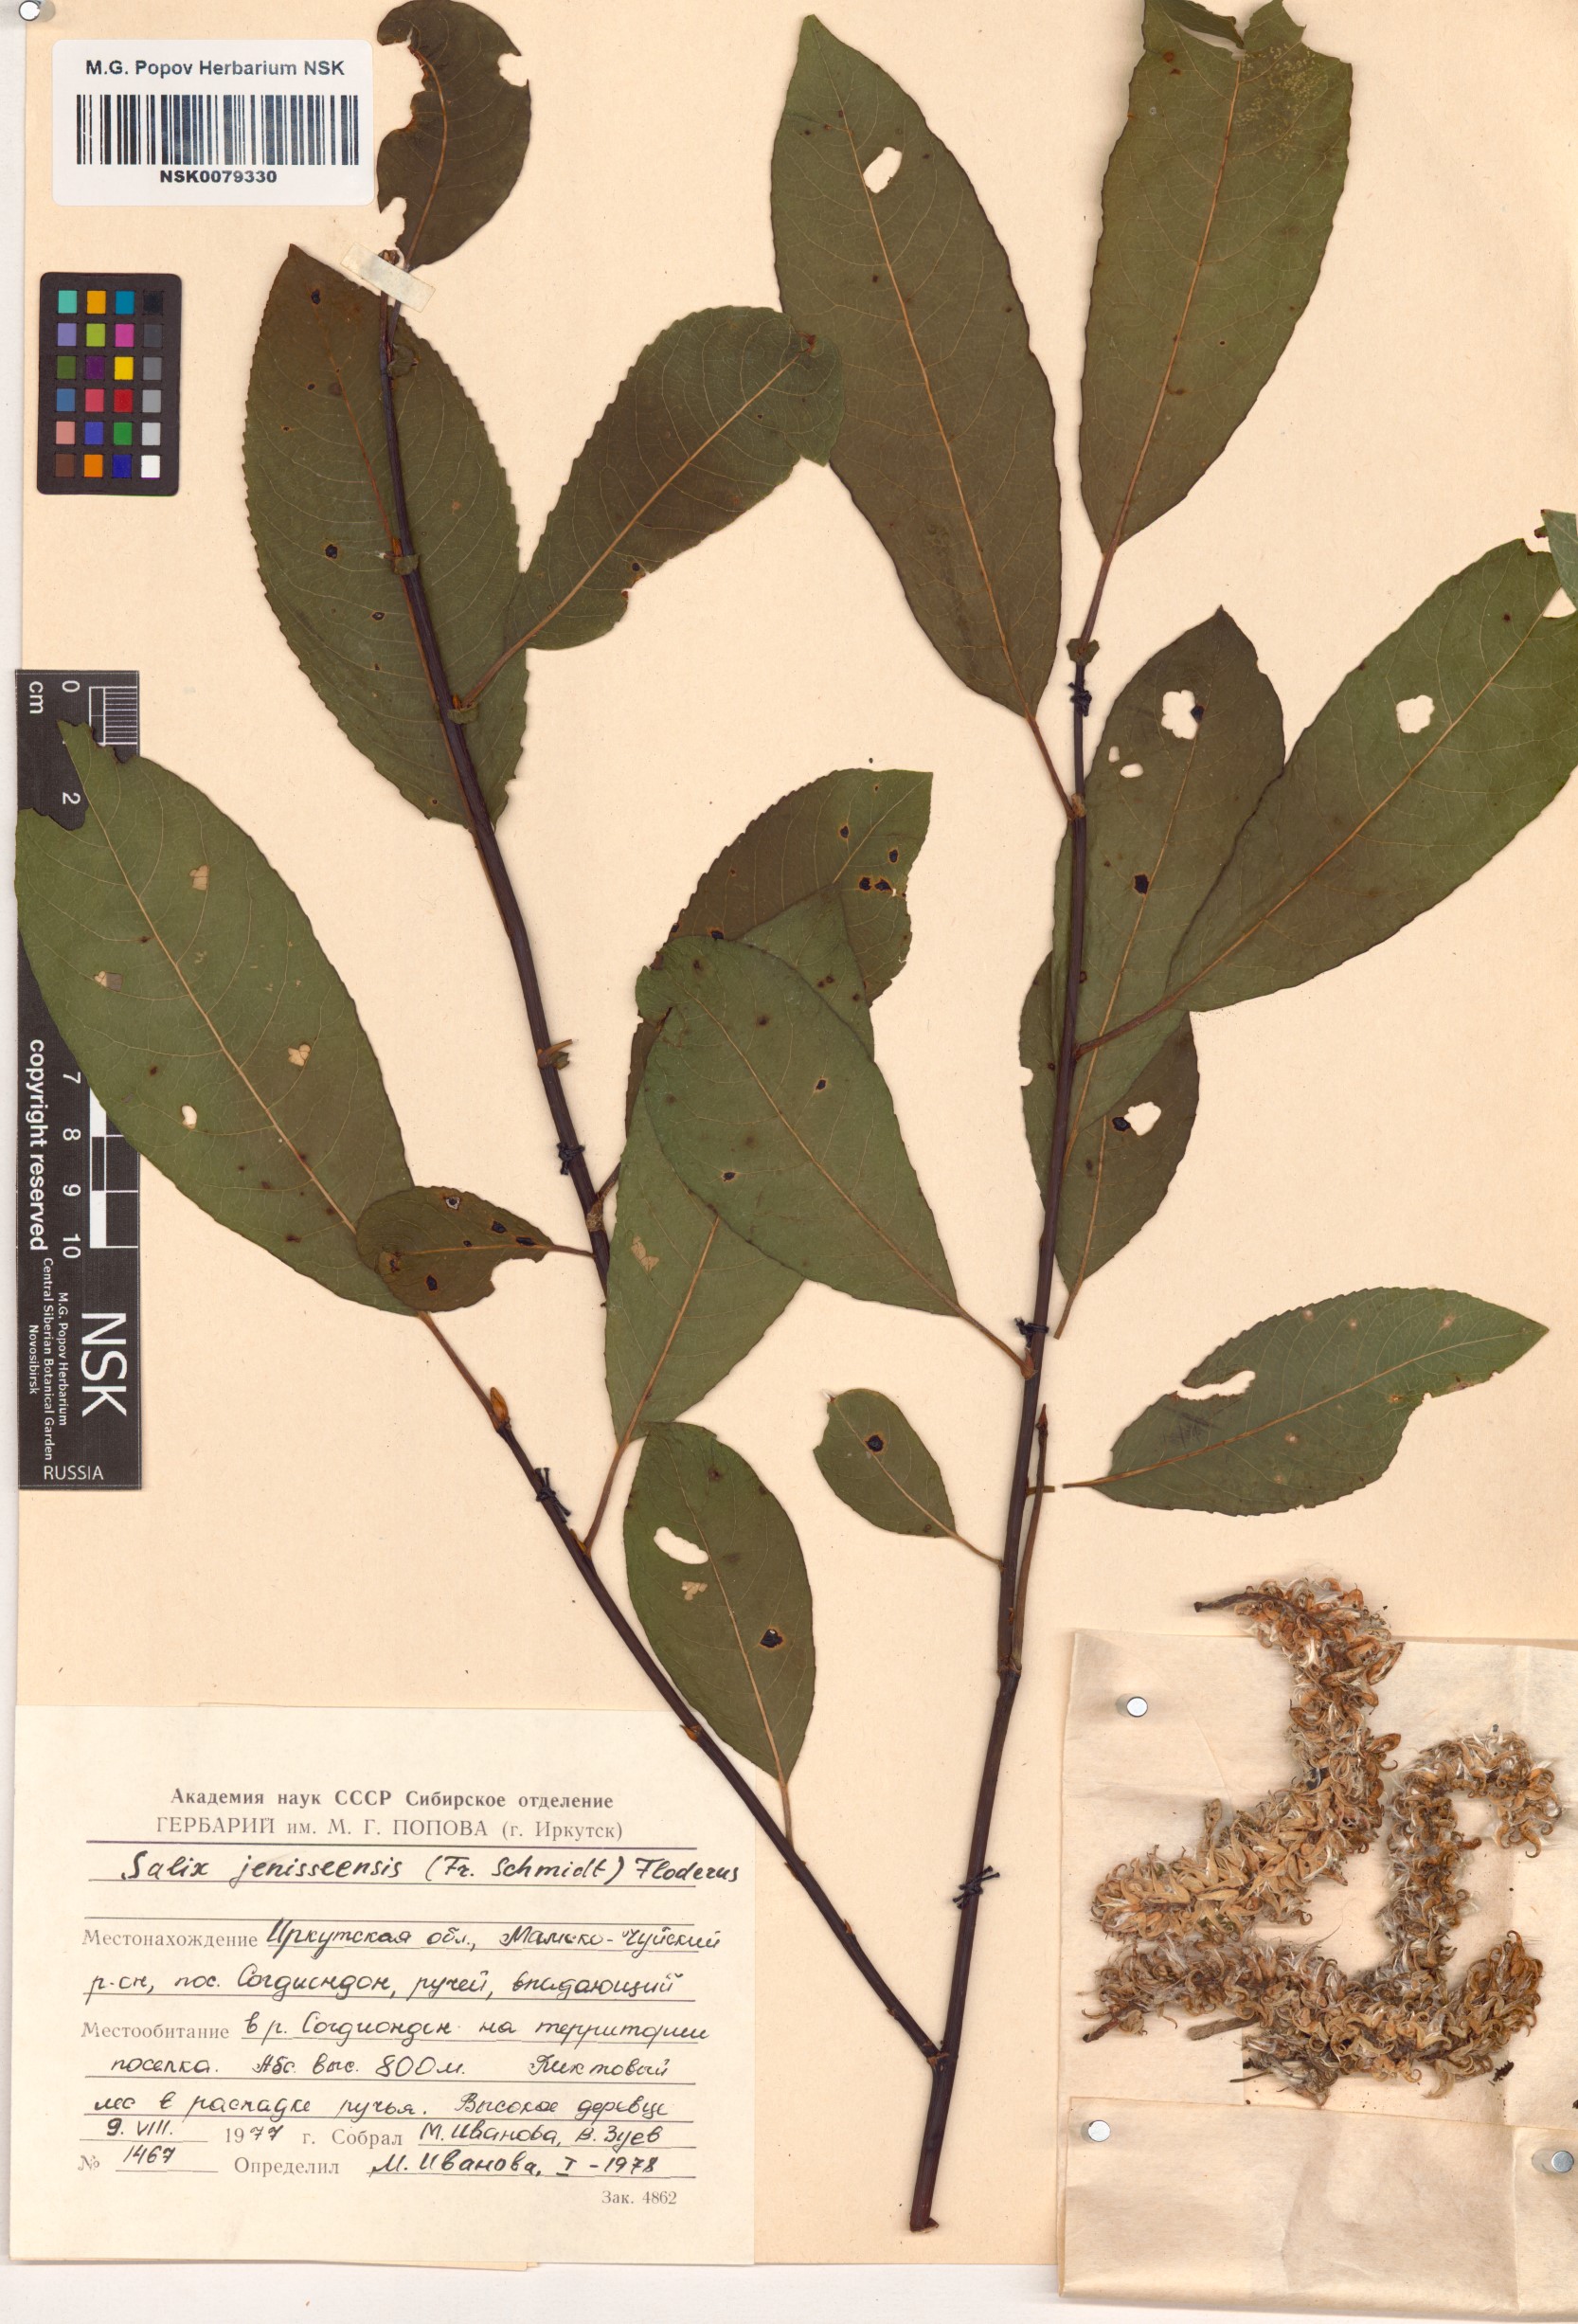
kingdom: Plantae
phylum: Tracheophyta
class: Magnoliopsida
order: Malpighiales
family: Salicaceae
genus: Salix
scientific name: Salix jenisseensis
